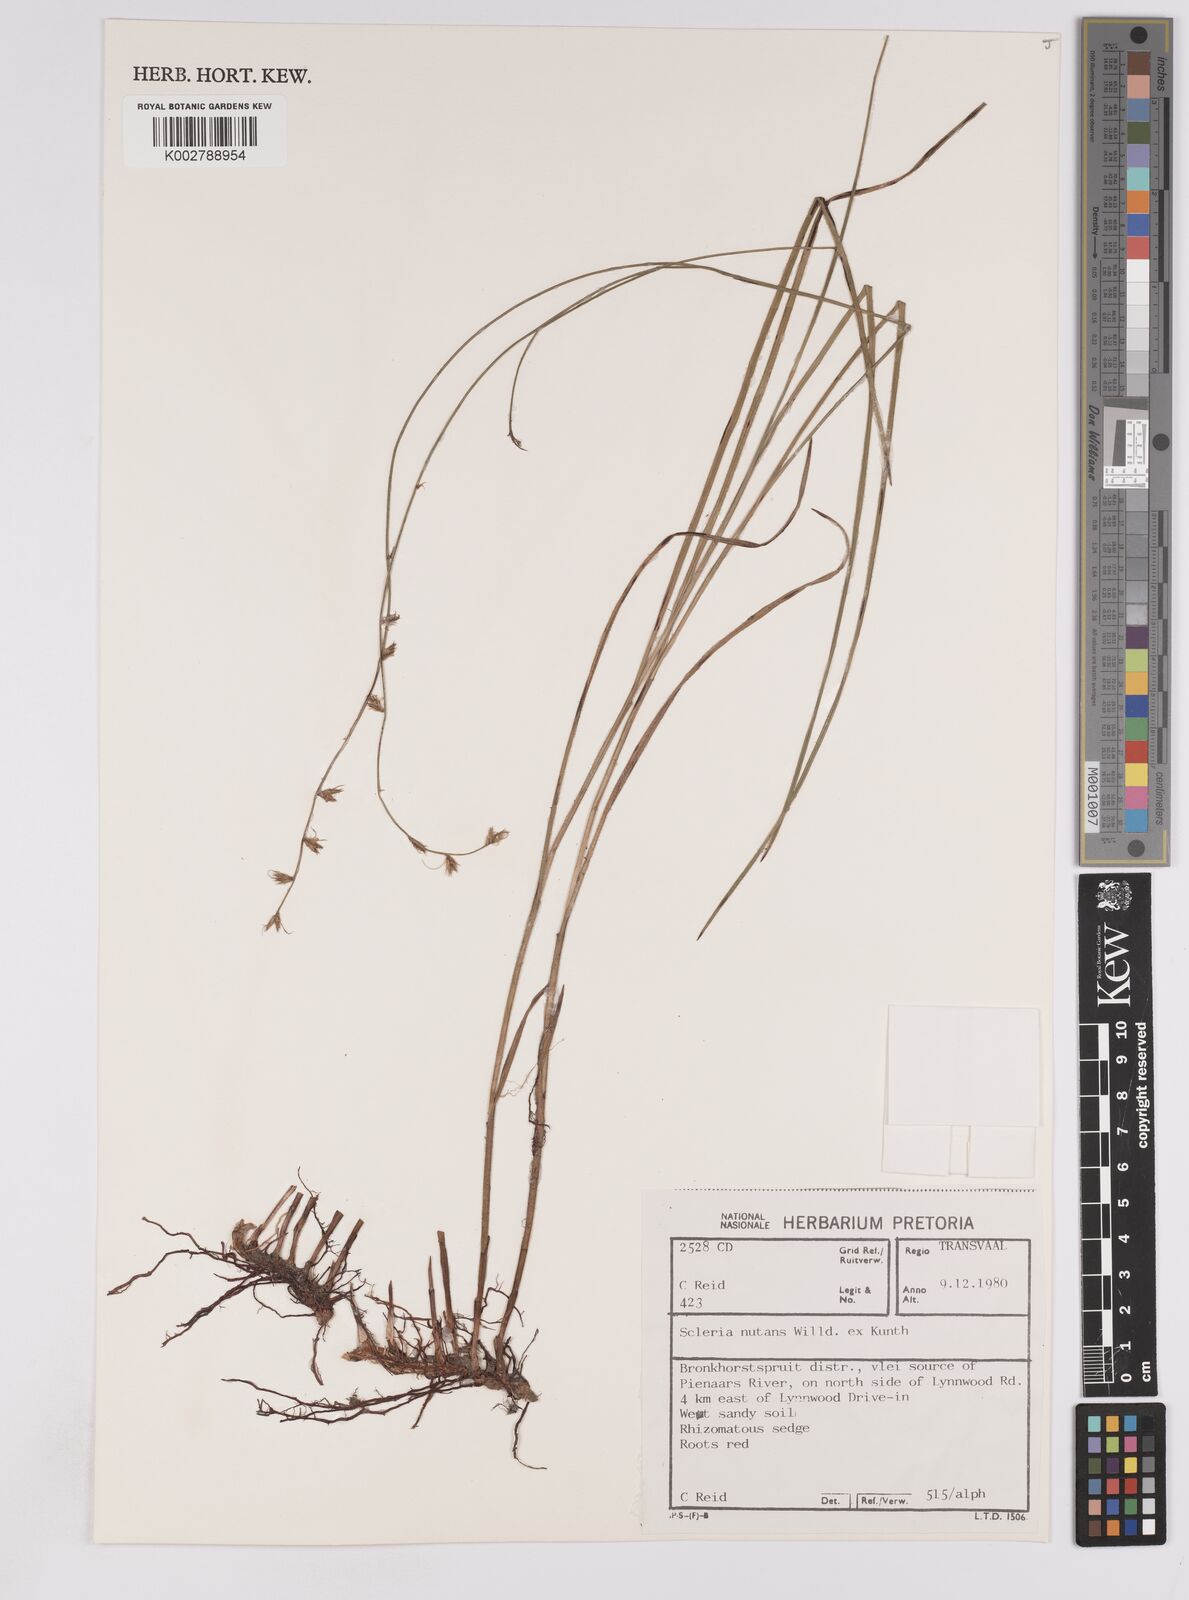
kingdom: Plantae
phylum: Tracheophyta
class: Liliopsida
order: Poales
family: Cyperaceae
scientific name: Cyperaceae
